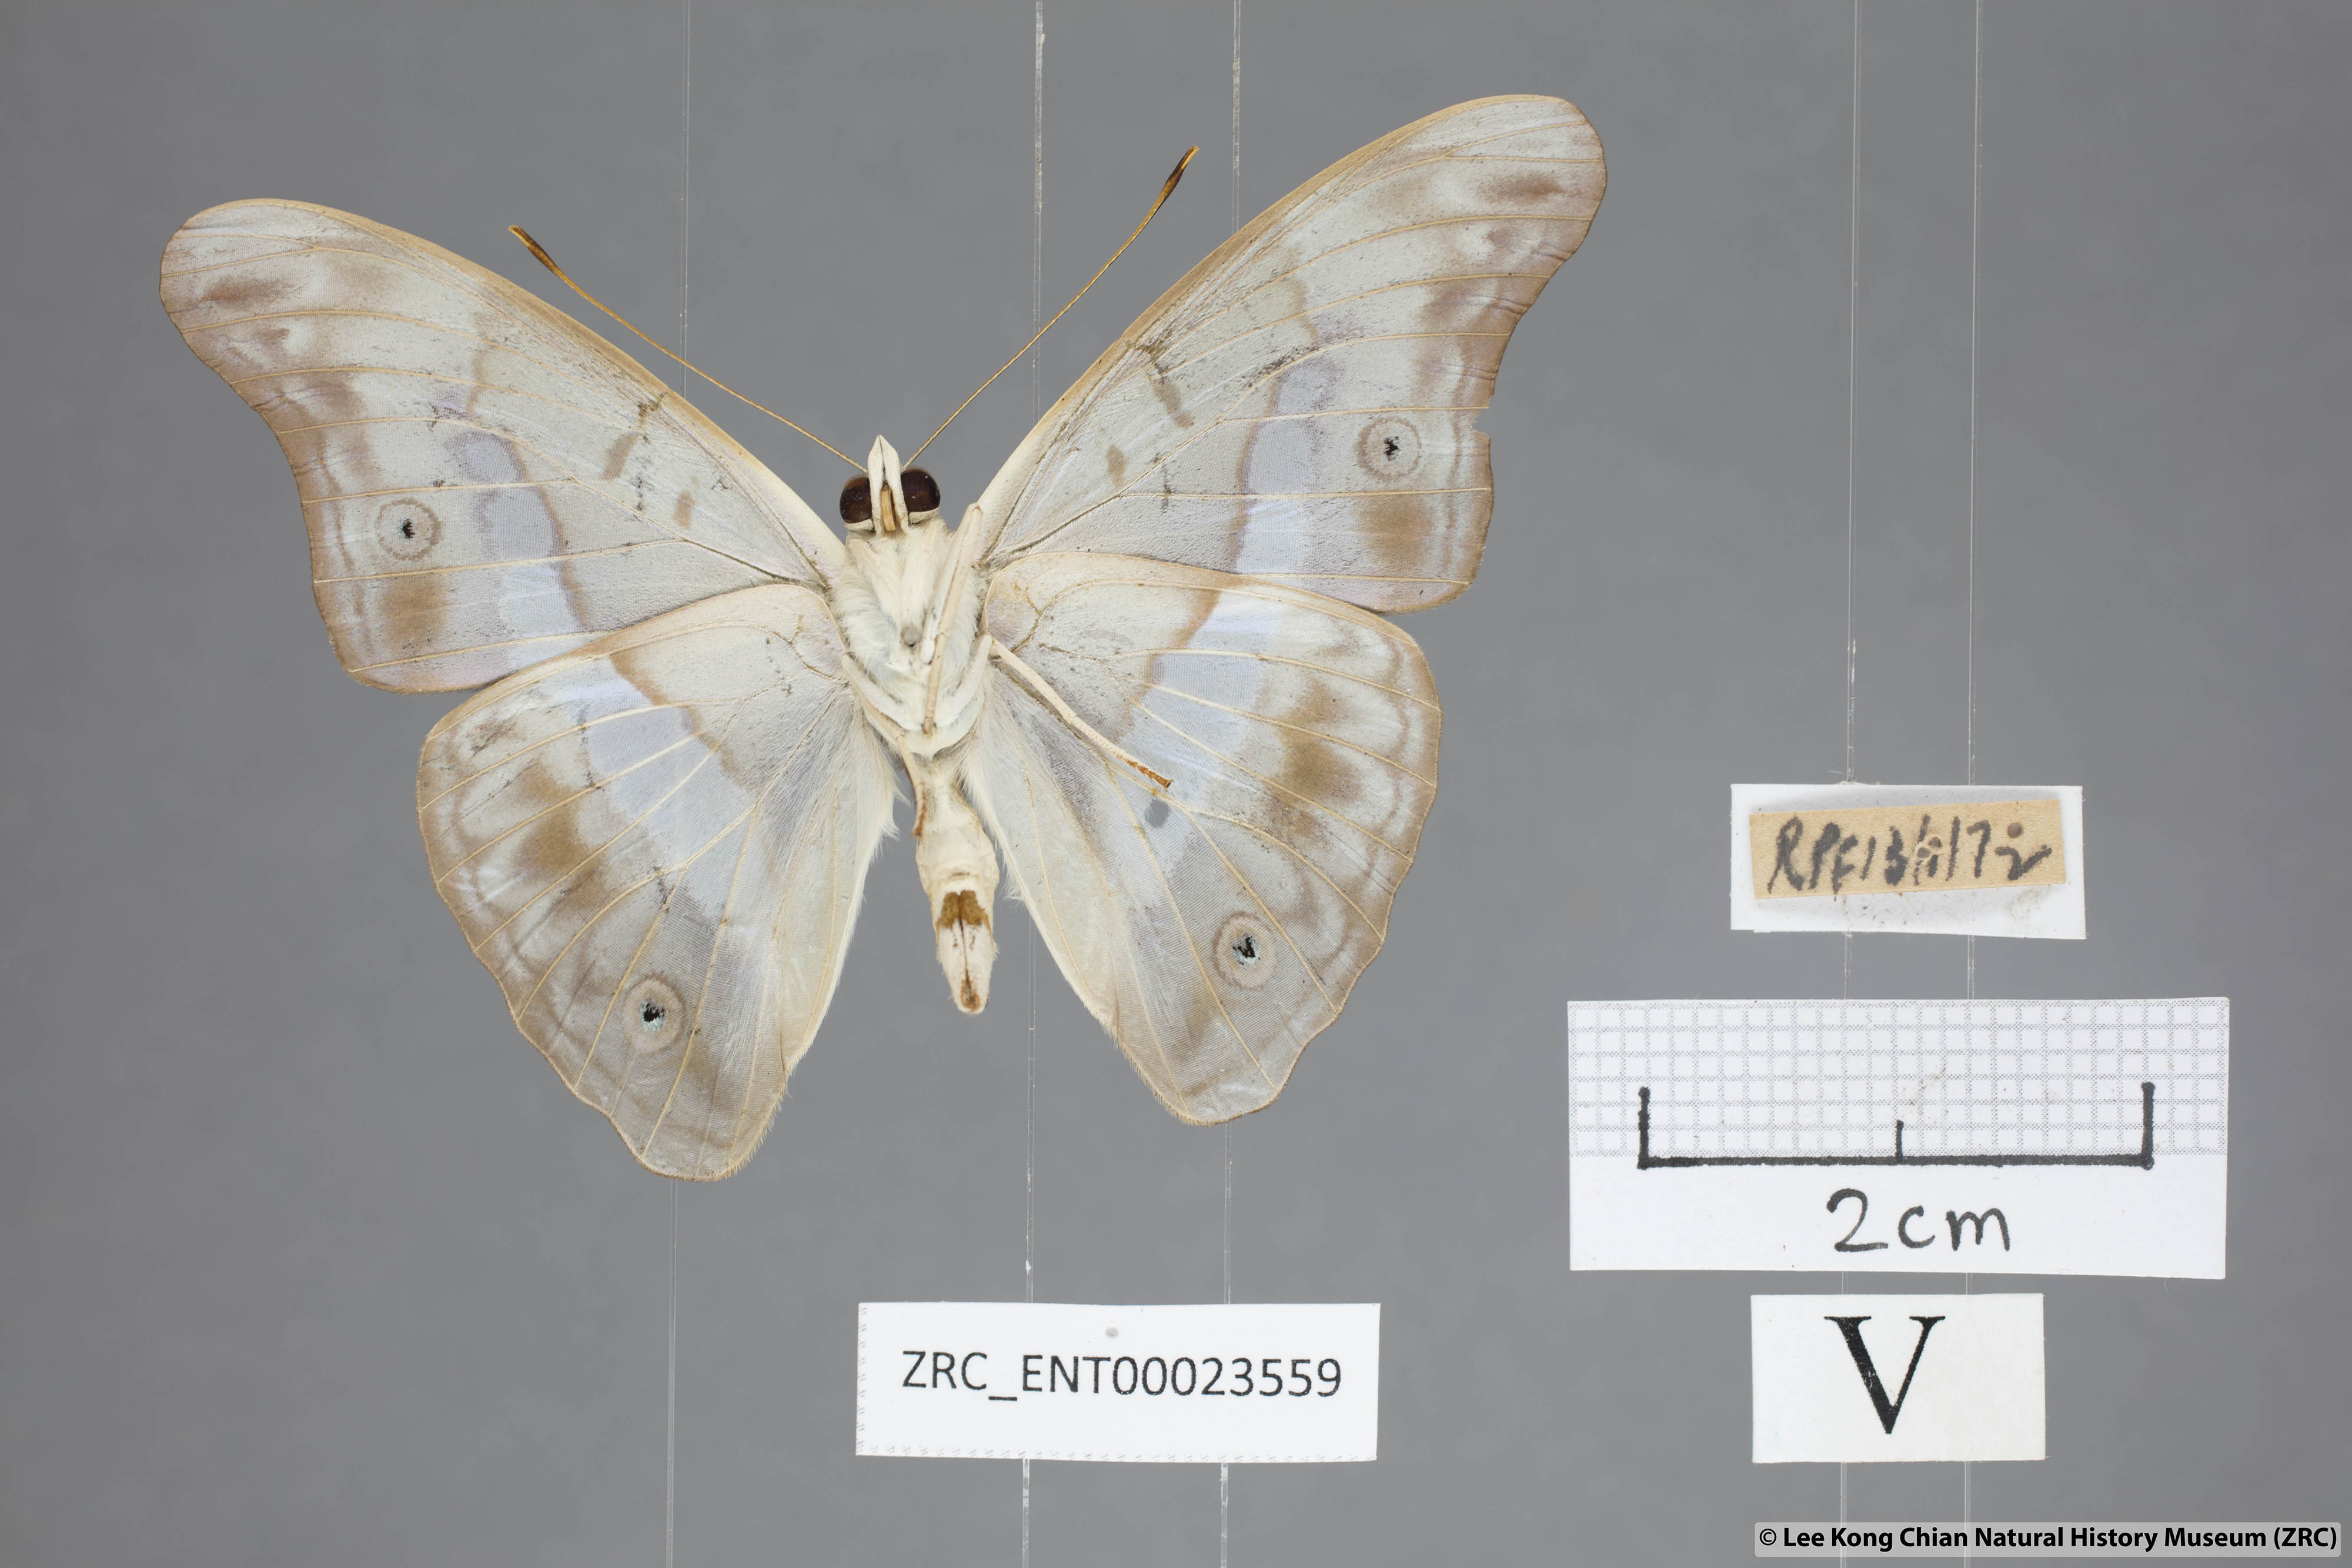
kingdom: Animalia
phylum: Arthropoda
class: Insecta
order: Lepidoptera
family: Nymphalidae
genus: Eulaceura
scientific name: Eulaceura osteria
